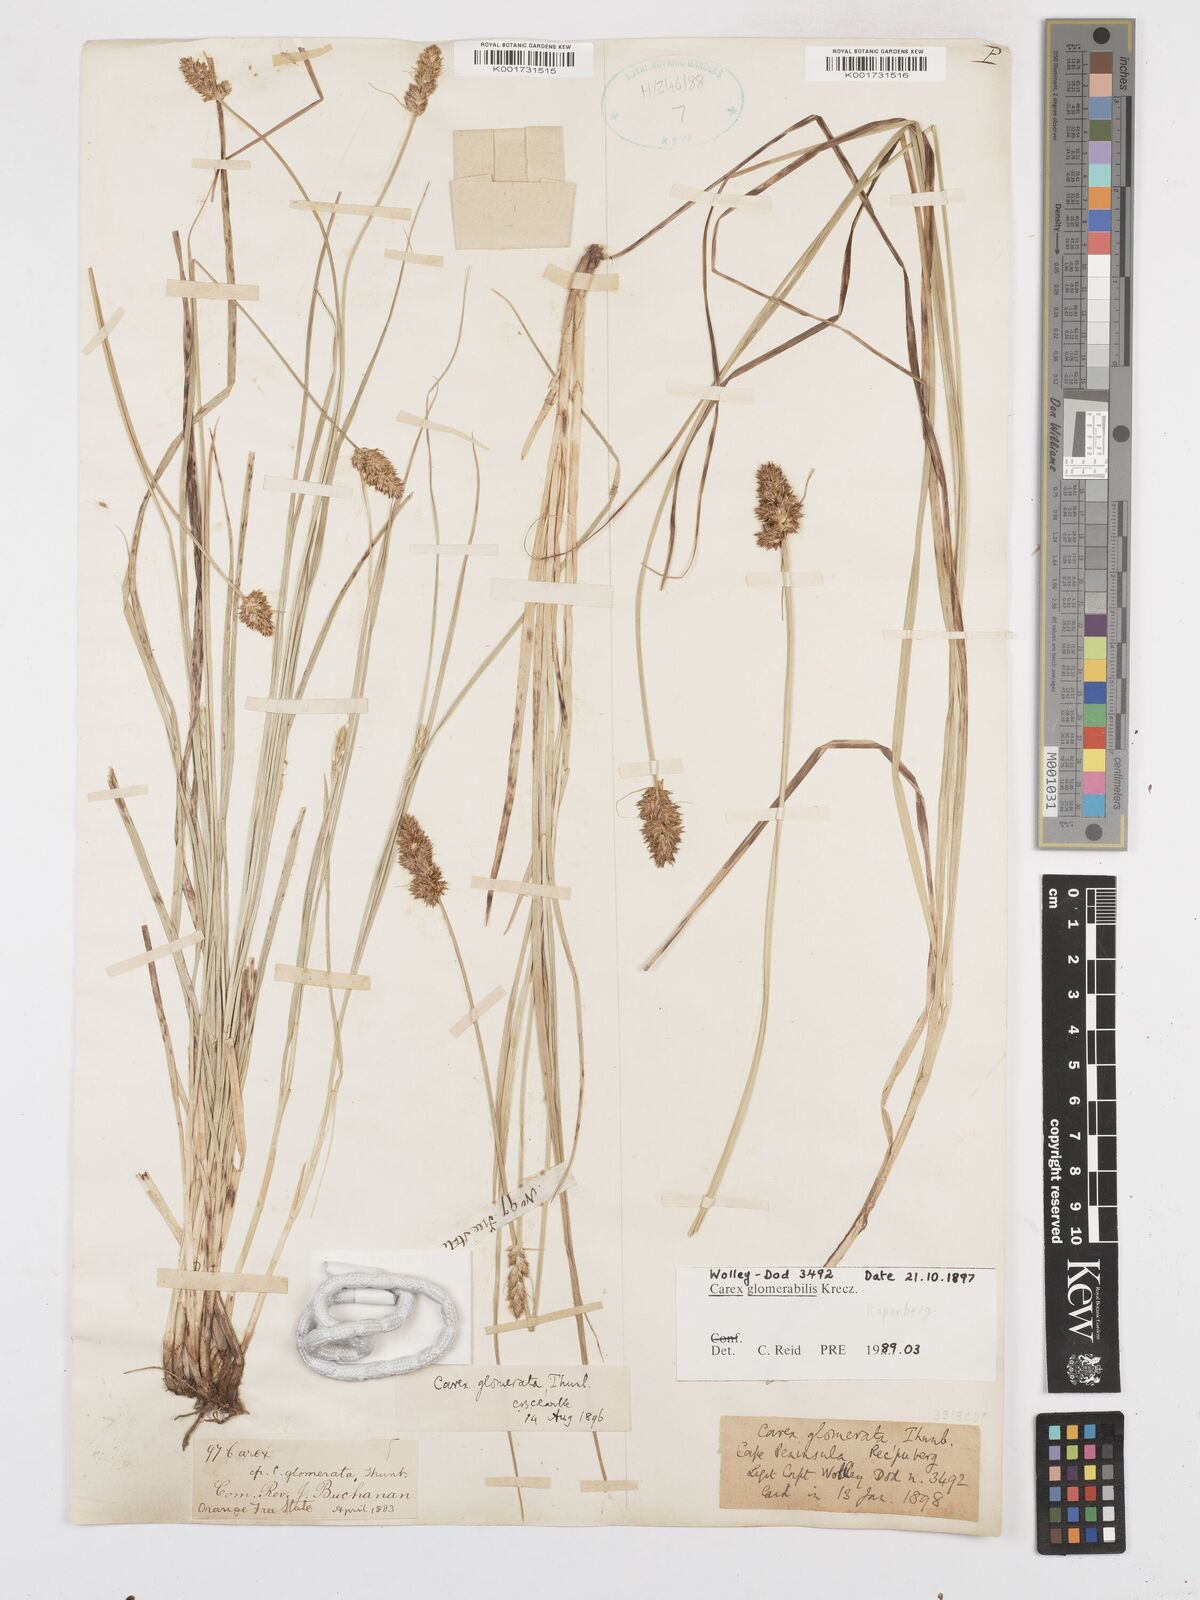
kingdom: Plantae
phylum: Tracheophyta
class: Liliopsida
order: Poales
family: Cyperaceae
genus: Carex
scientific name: Carex glomerata
